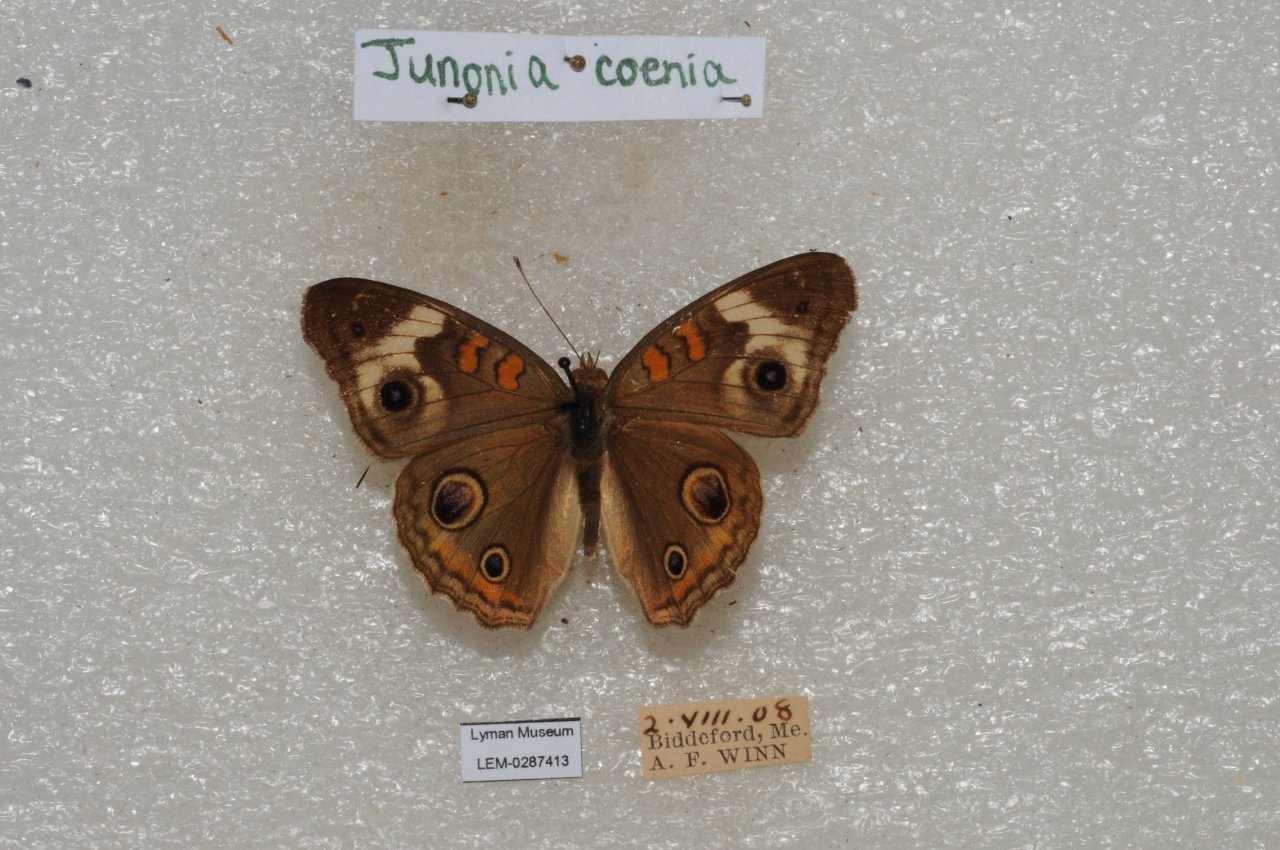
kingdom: Animalia
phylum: Arthropoda
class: Insecta
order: Lepidoptera
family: Nymphalidae
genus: Junonia
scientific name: Junonia coenia
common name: Common Buckeye
